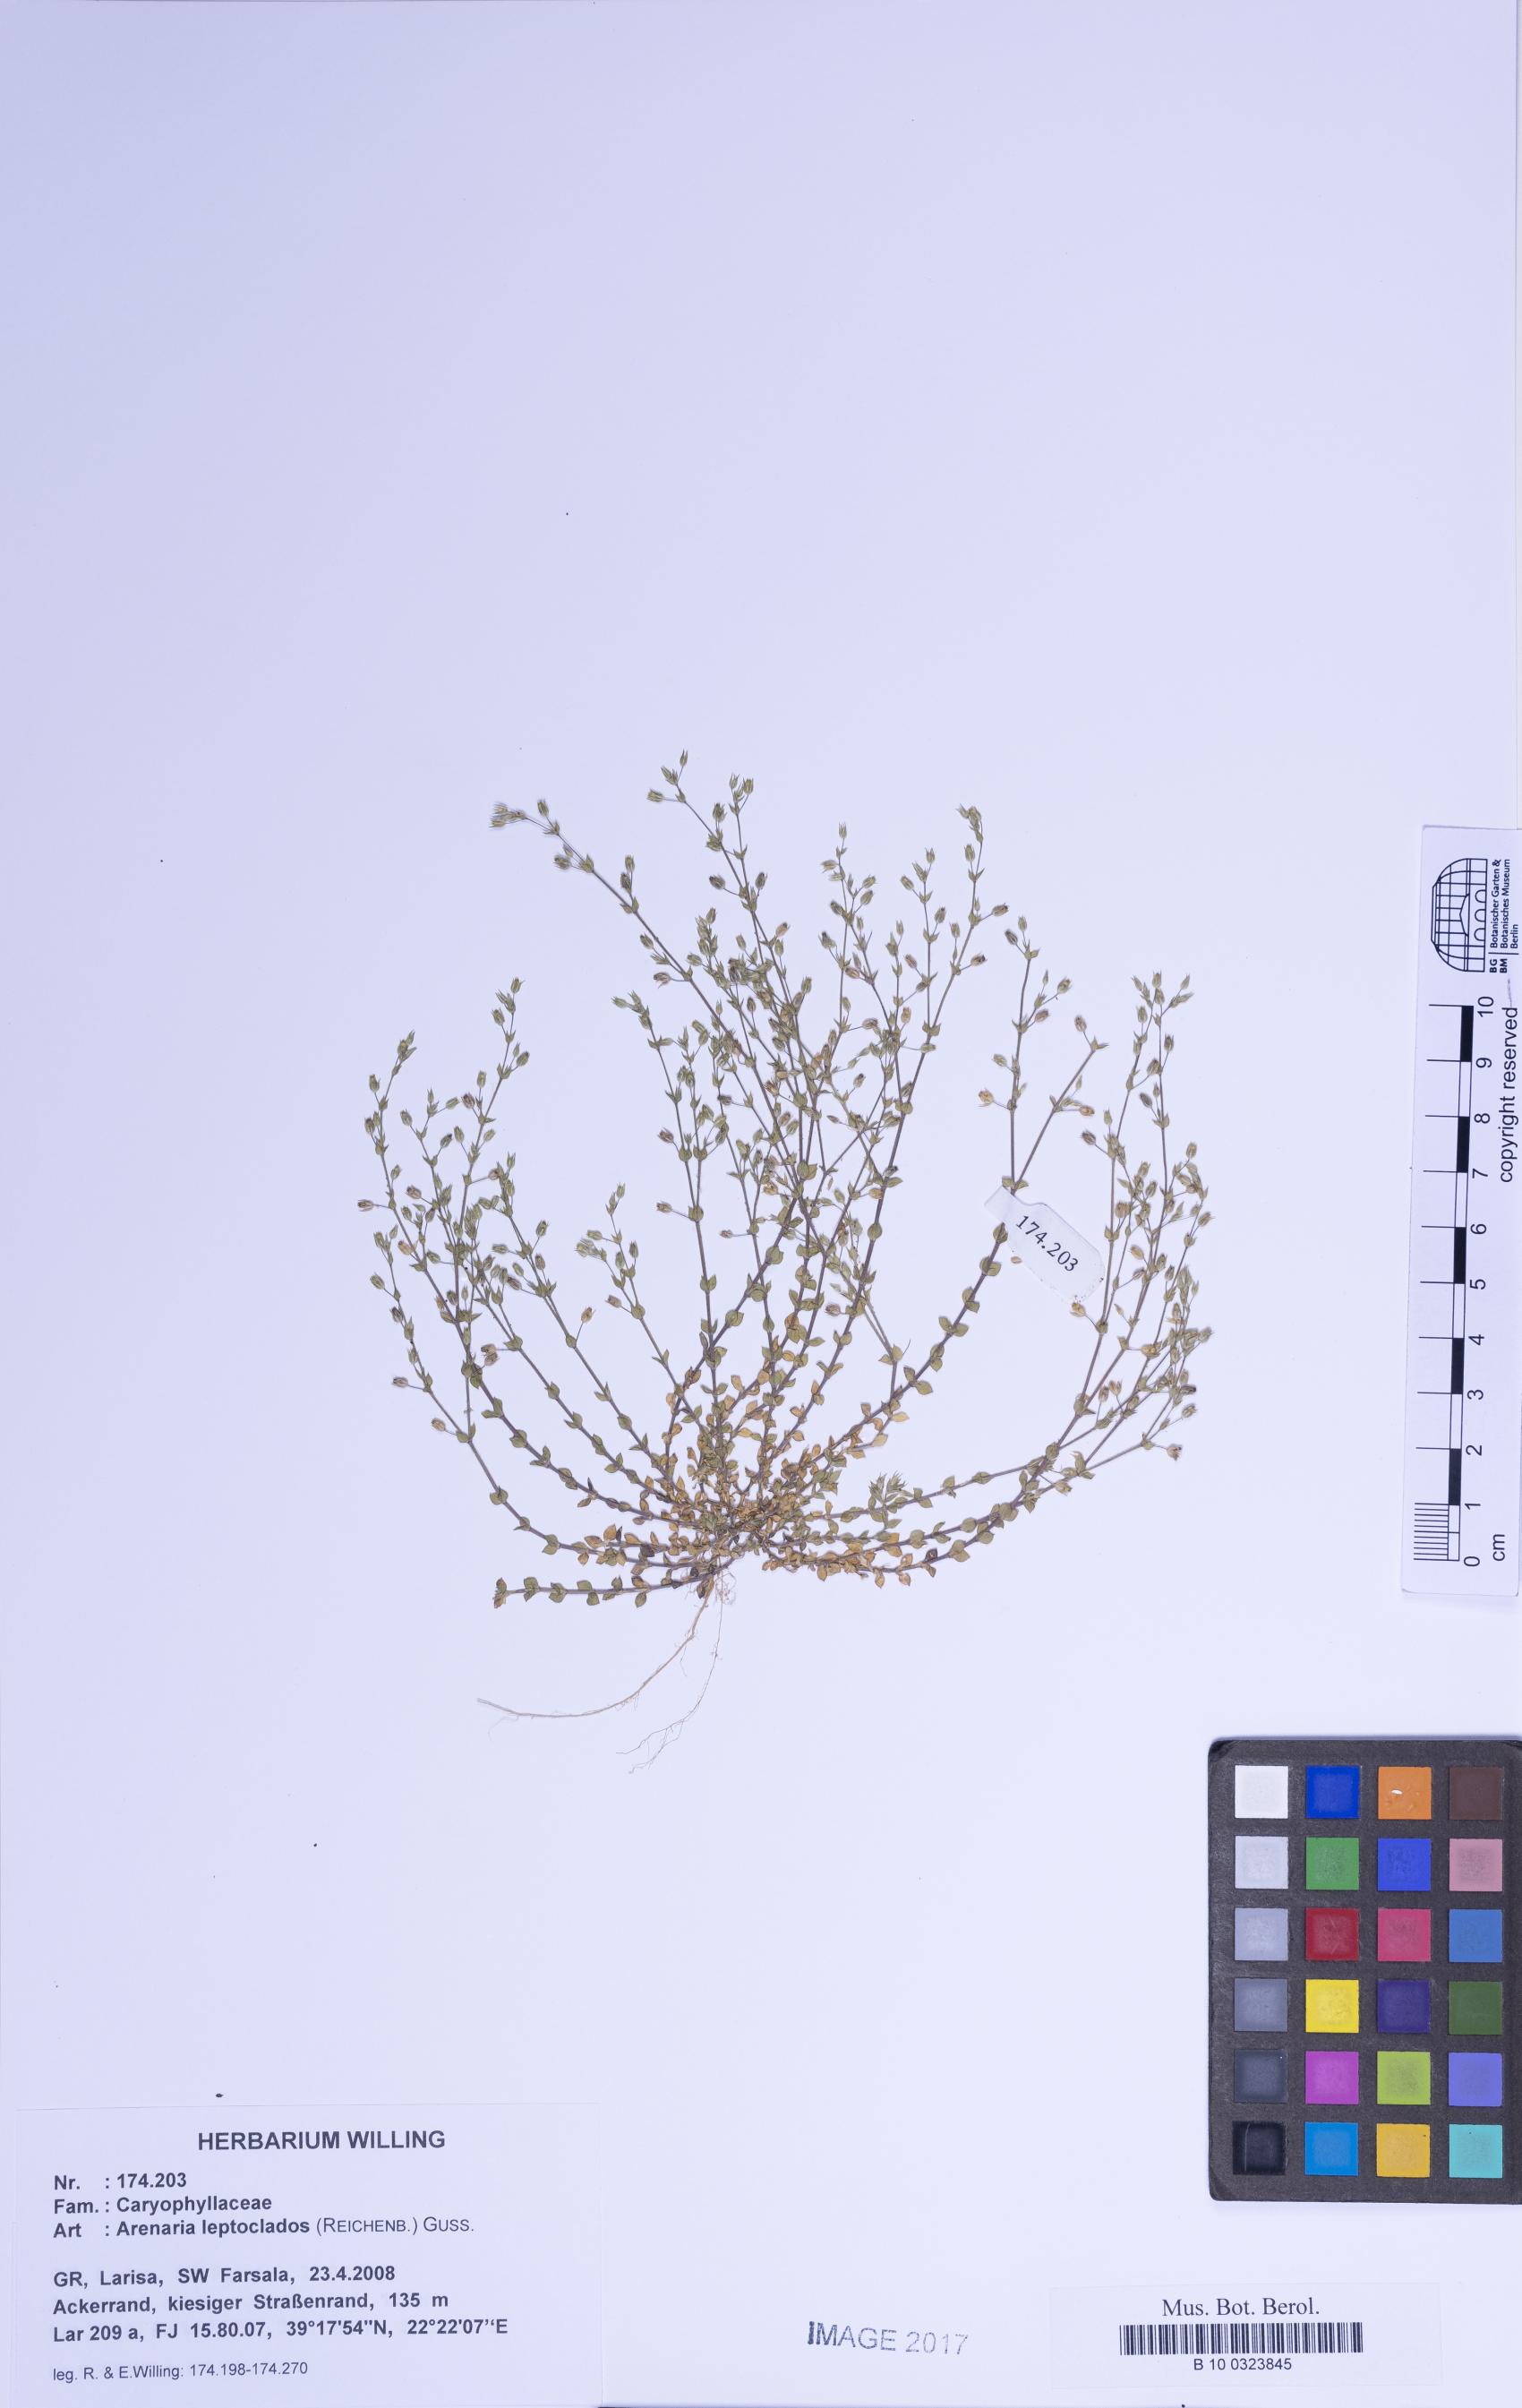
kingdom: Plantae
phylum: Tracheophyta
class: Magnoliopsida
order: Caryophyllales
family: Caryophyllaceae
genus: Arenaria
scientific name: Arenaria leptoclados
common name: Thyme-leaved sandwort
